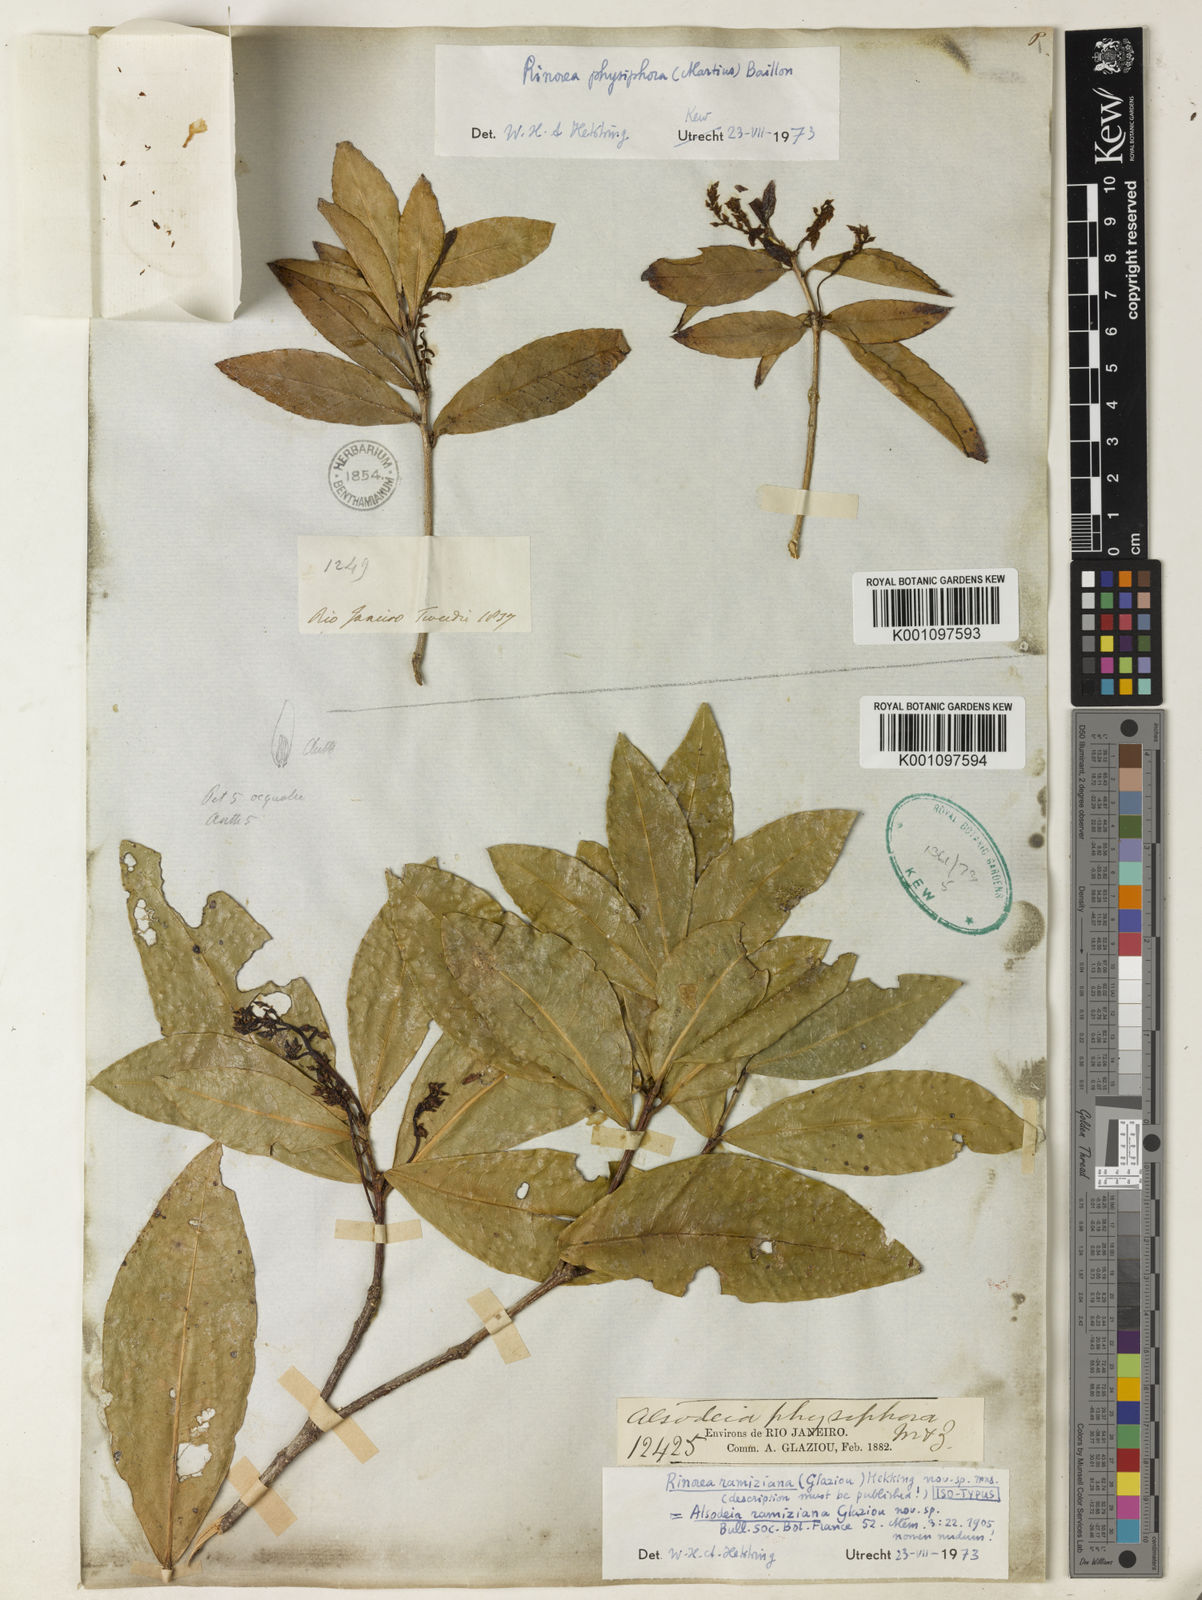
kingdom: Plantae
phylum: Tracheophyta
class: Magnoliopsida
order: Malpighiales
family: Violaceae
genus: Rinorea
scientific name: Rinorea ramiziana
